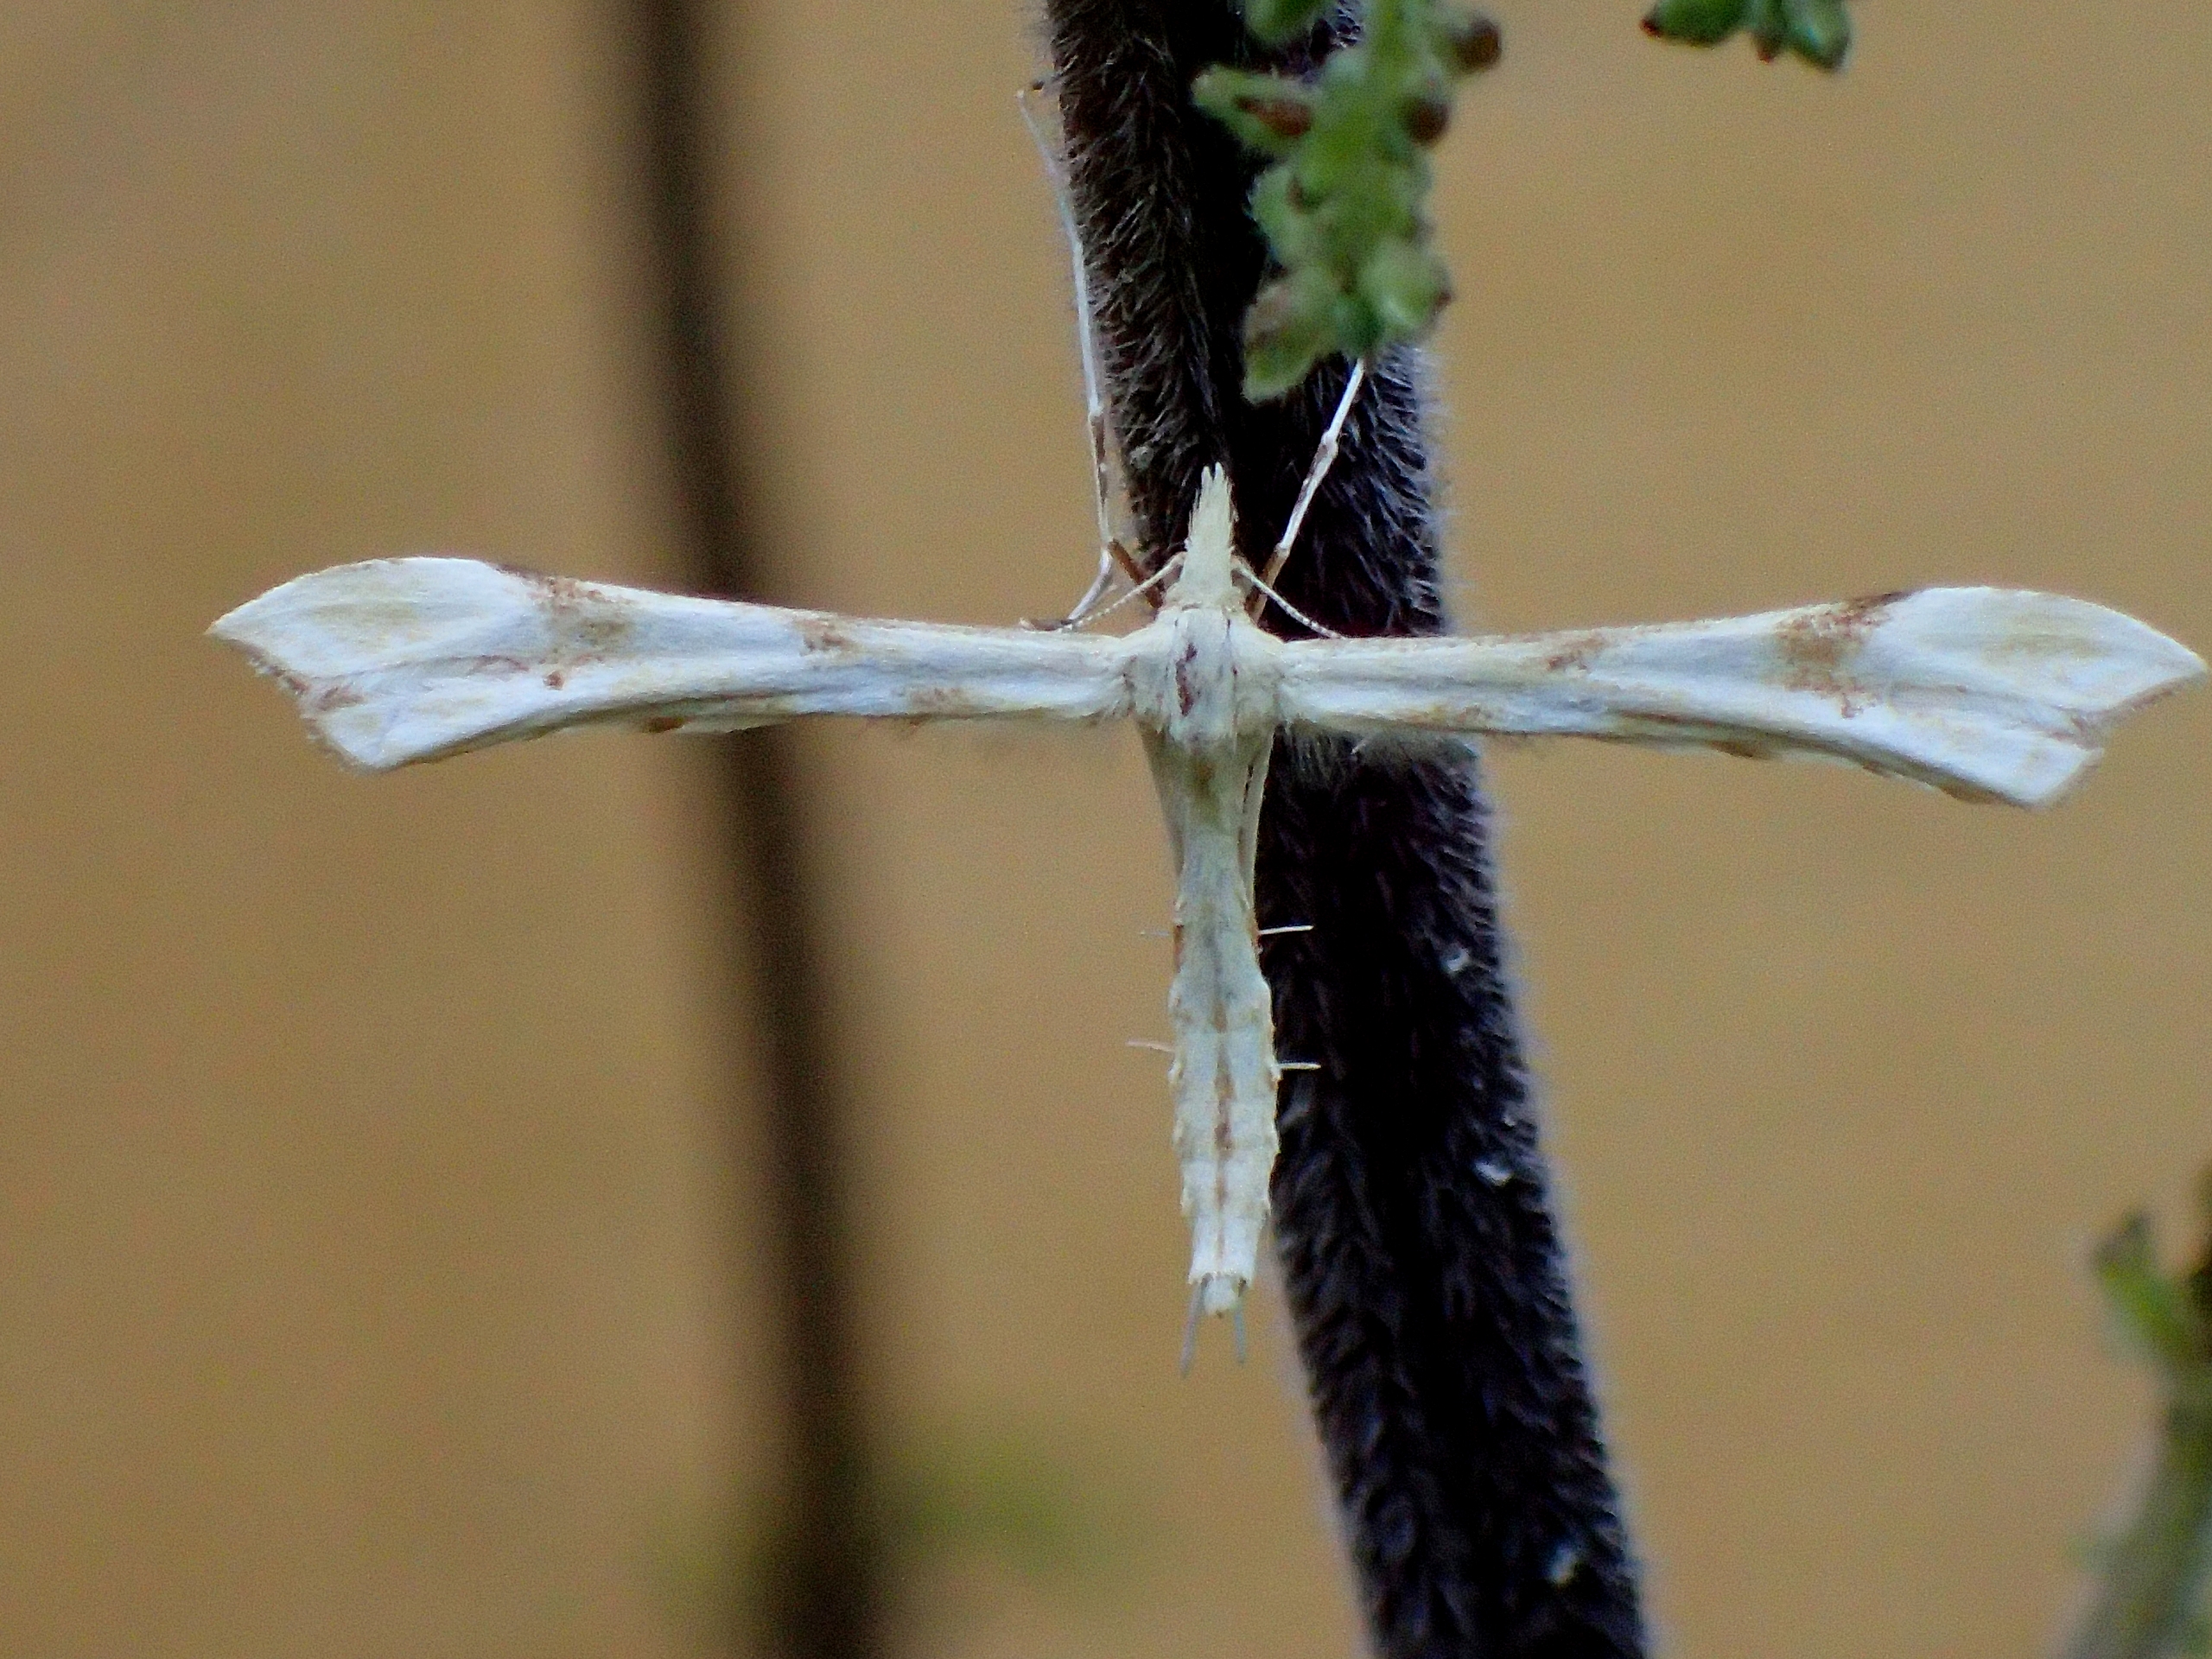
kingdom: Animalia
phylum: Arthropoda
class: Insecta
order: Lepidoptera
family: Pterophoridae
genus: Gillmeria
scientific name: Gillmeria ochrodactyla
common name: Rejnfanfjermøl
